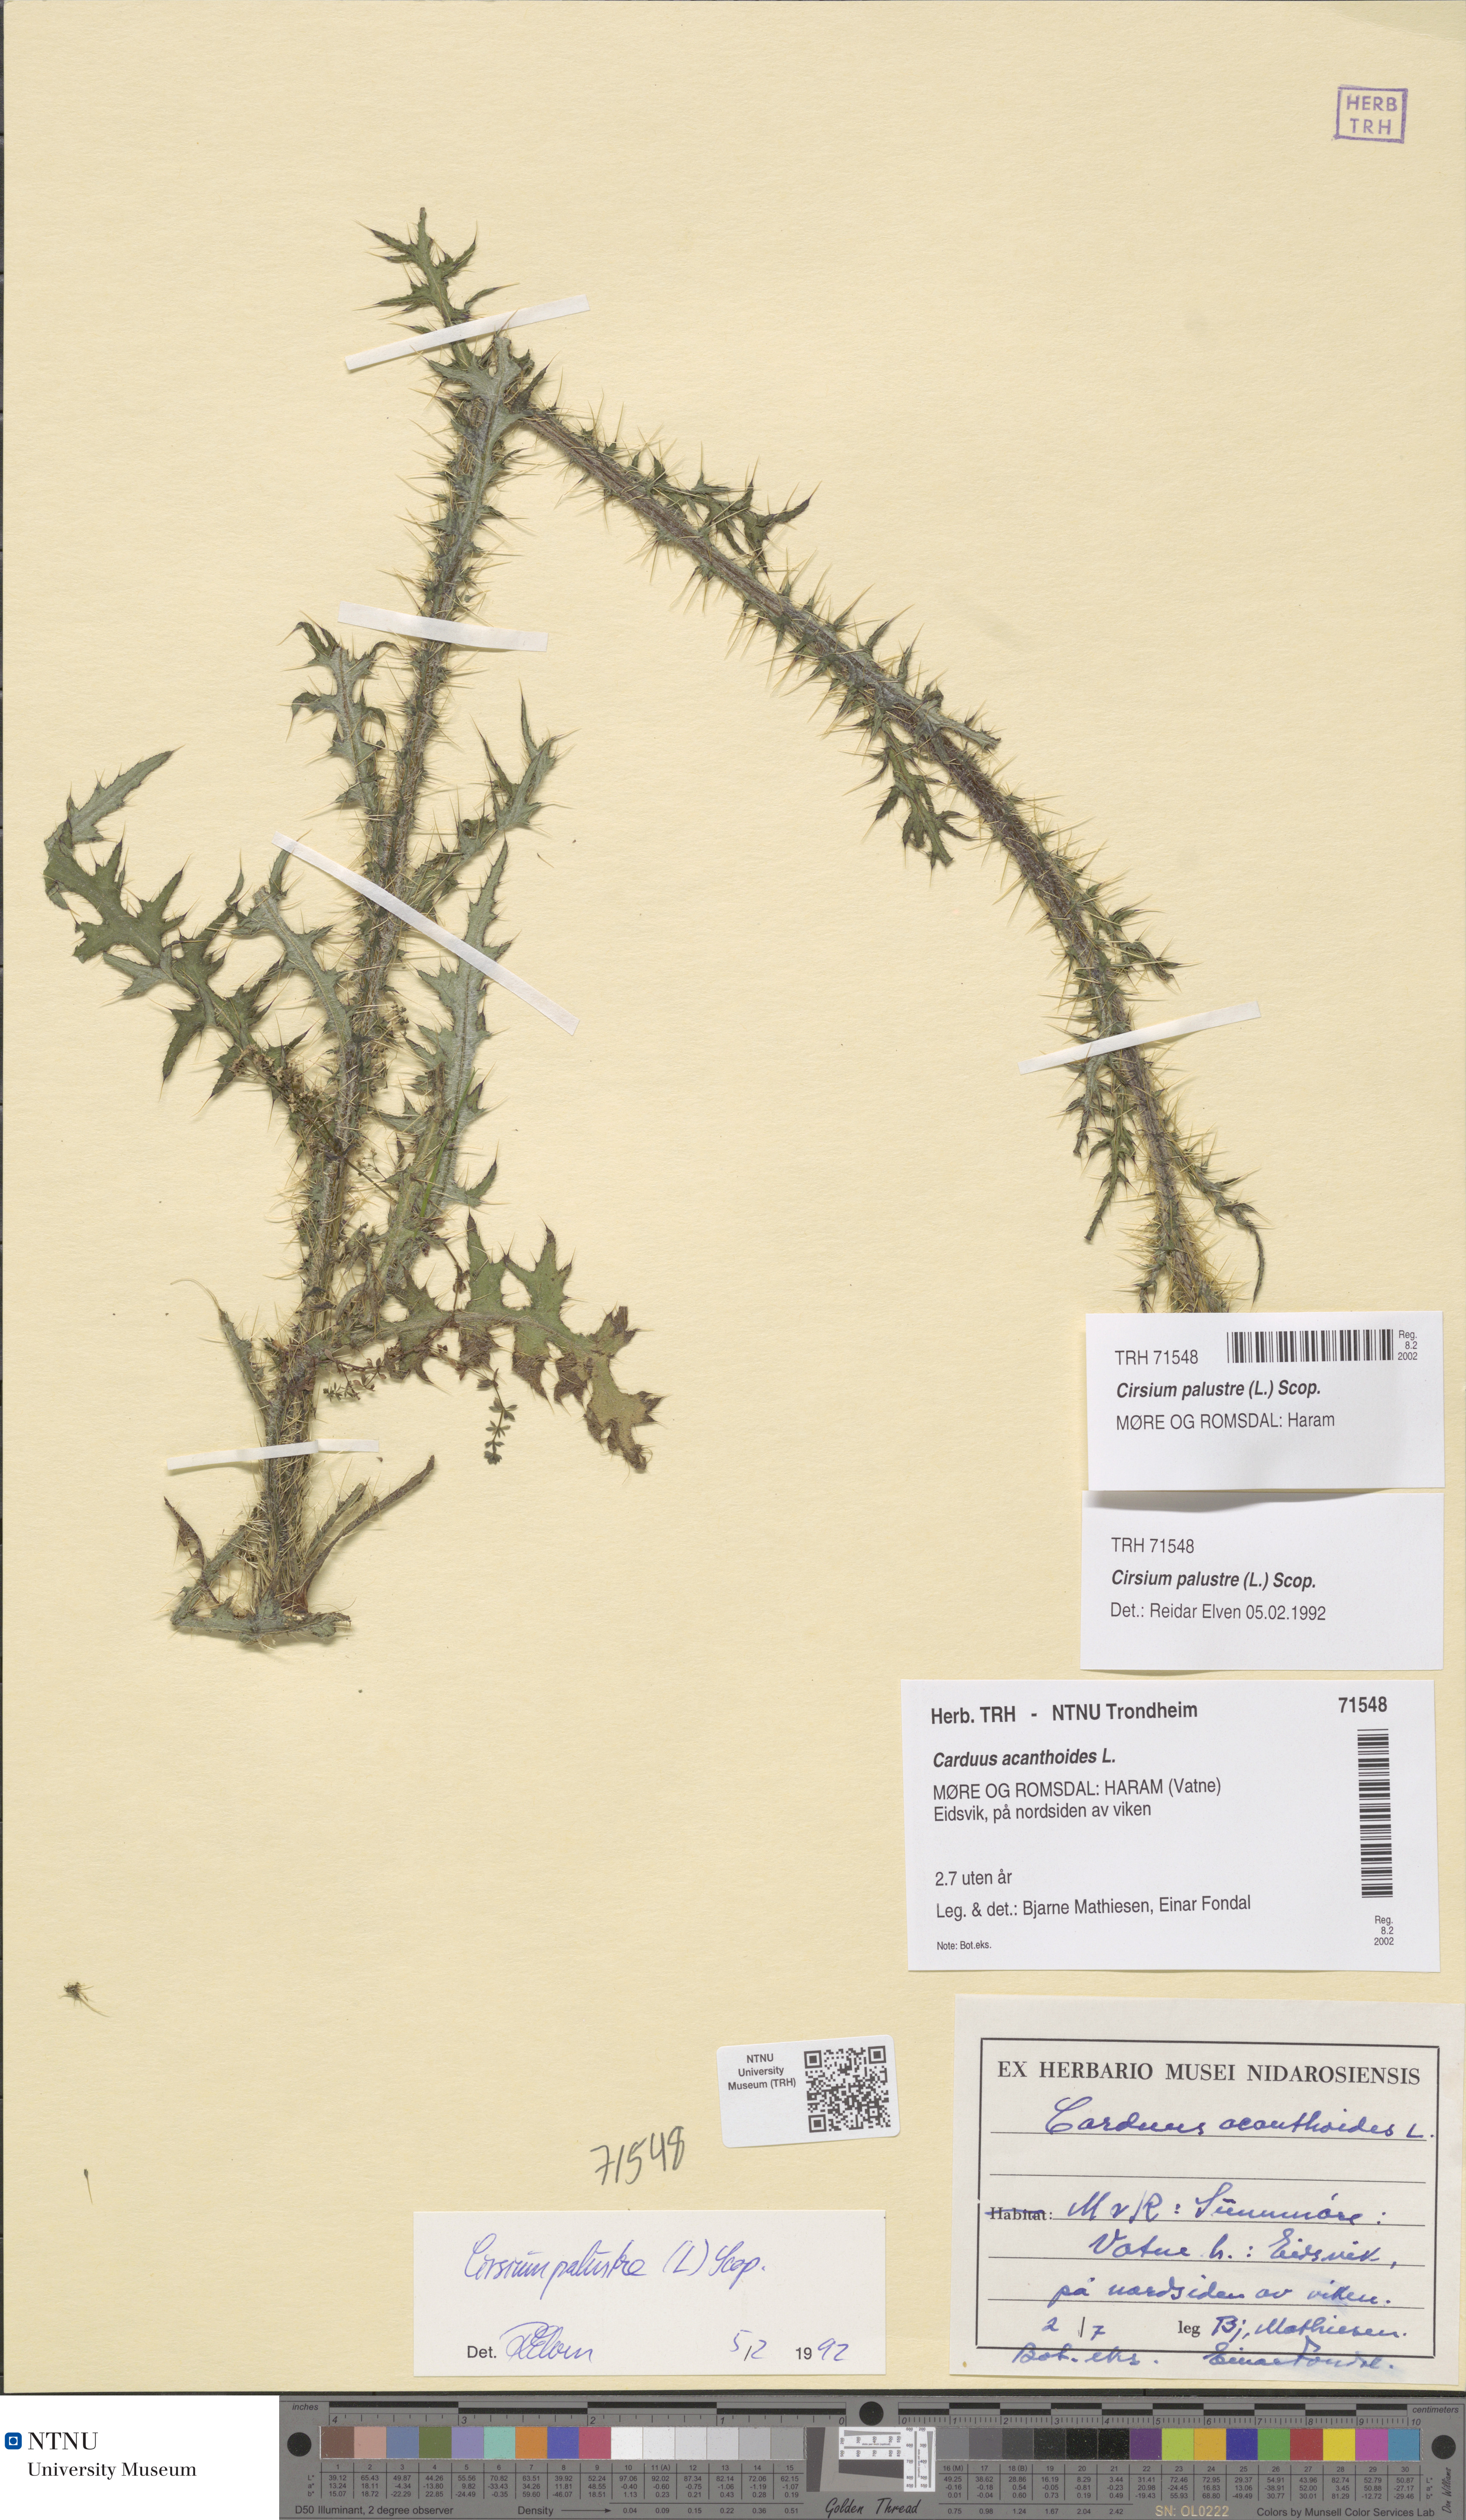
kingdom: Plantae
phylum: Tracheophyta
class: Magnoliopsida
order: Asterales
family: Asteraceae
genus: Cirsium
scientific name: Cirsium palustre
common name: Marsh thistle
